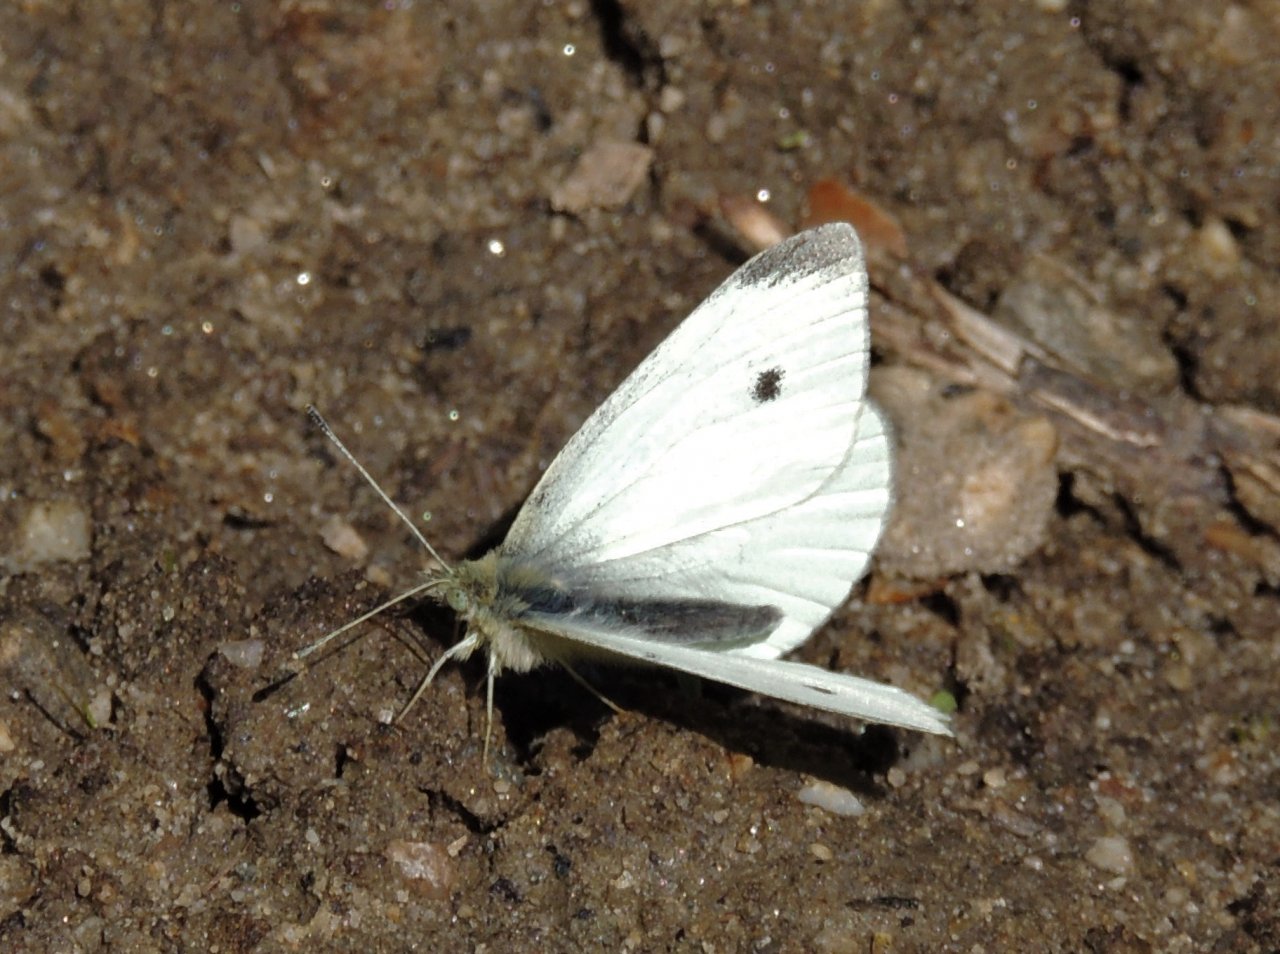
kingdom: Animalia
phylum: Arthropoda
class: Insecta
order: Lepidoptera
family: Pieridae
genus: Pieris
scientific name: Pieris rapae
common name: Cabbage White
